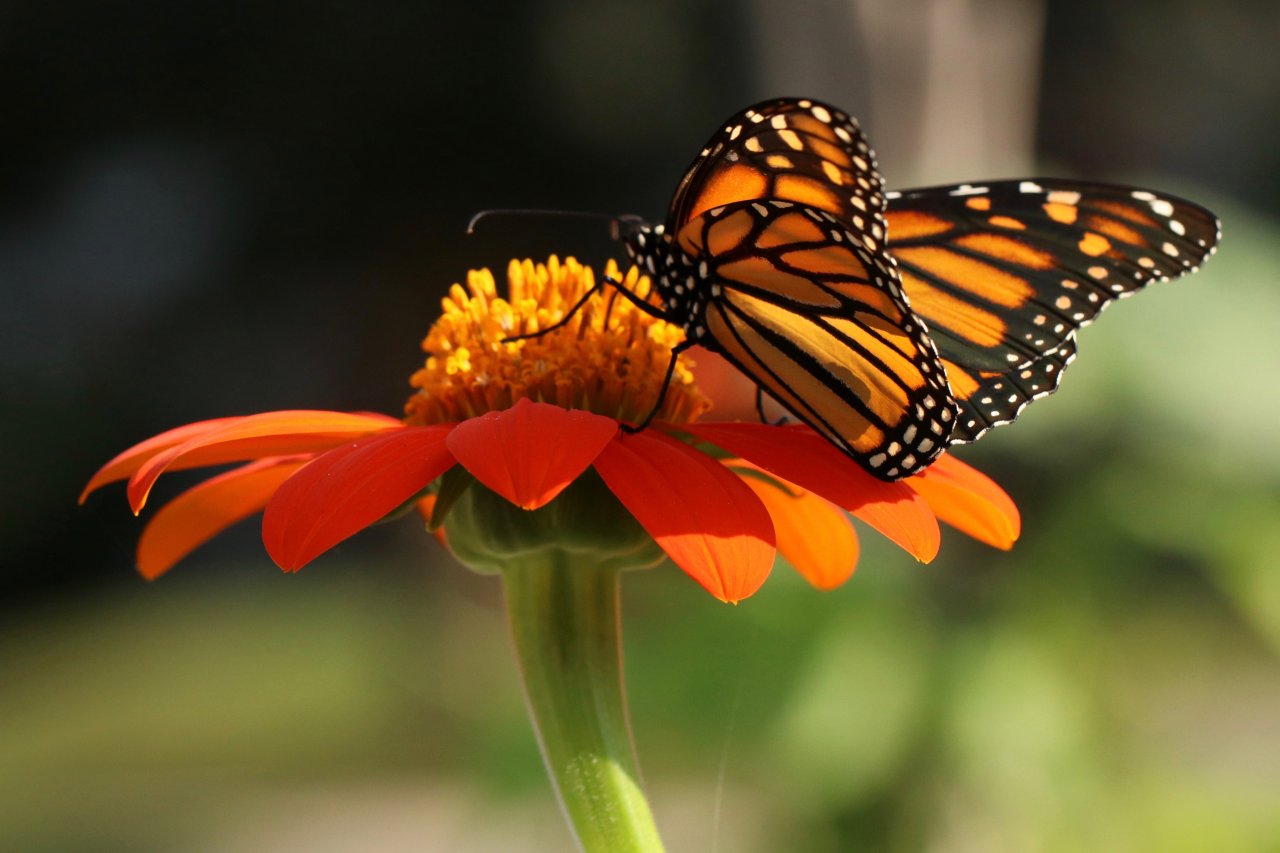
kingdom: Animalia
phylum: Arthropoda
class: Insecta
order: Lepidoptera
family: Nymphalidae
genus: Danaus
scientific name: Danaus plexippus
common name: Monarch
